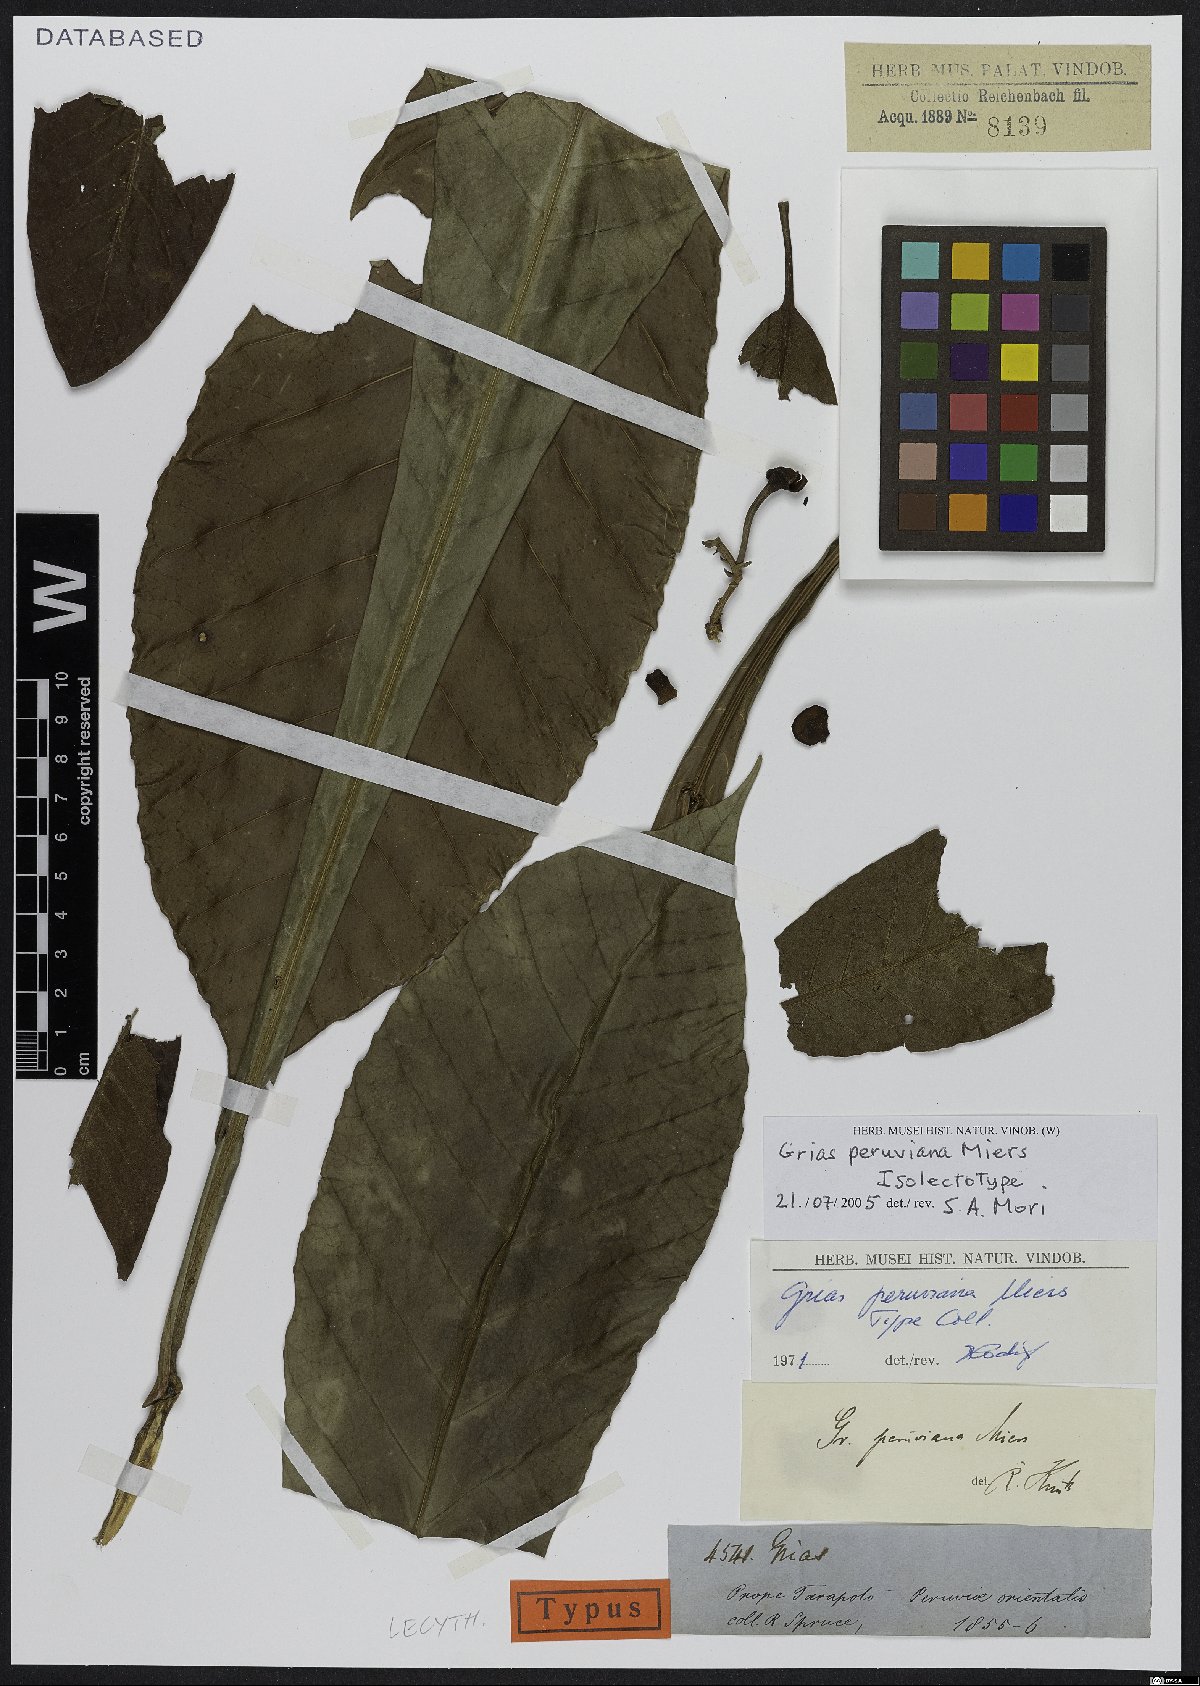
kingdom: Plantae
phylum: Tracheophyta
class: Magnoliopsida
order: Ericales
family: Lecythidaceae
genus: Grias
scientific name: Grias peruviana
